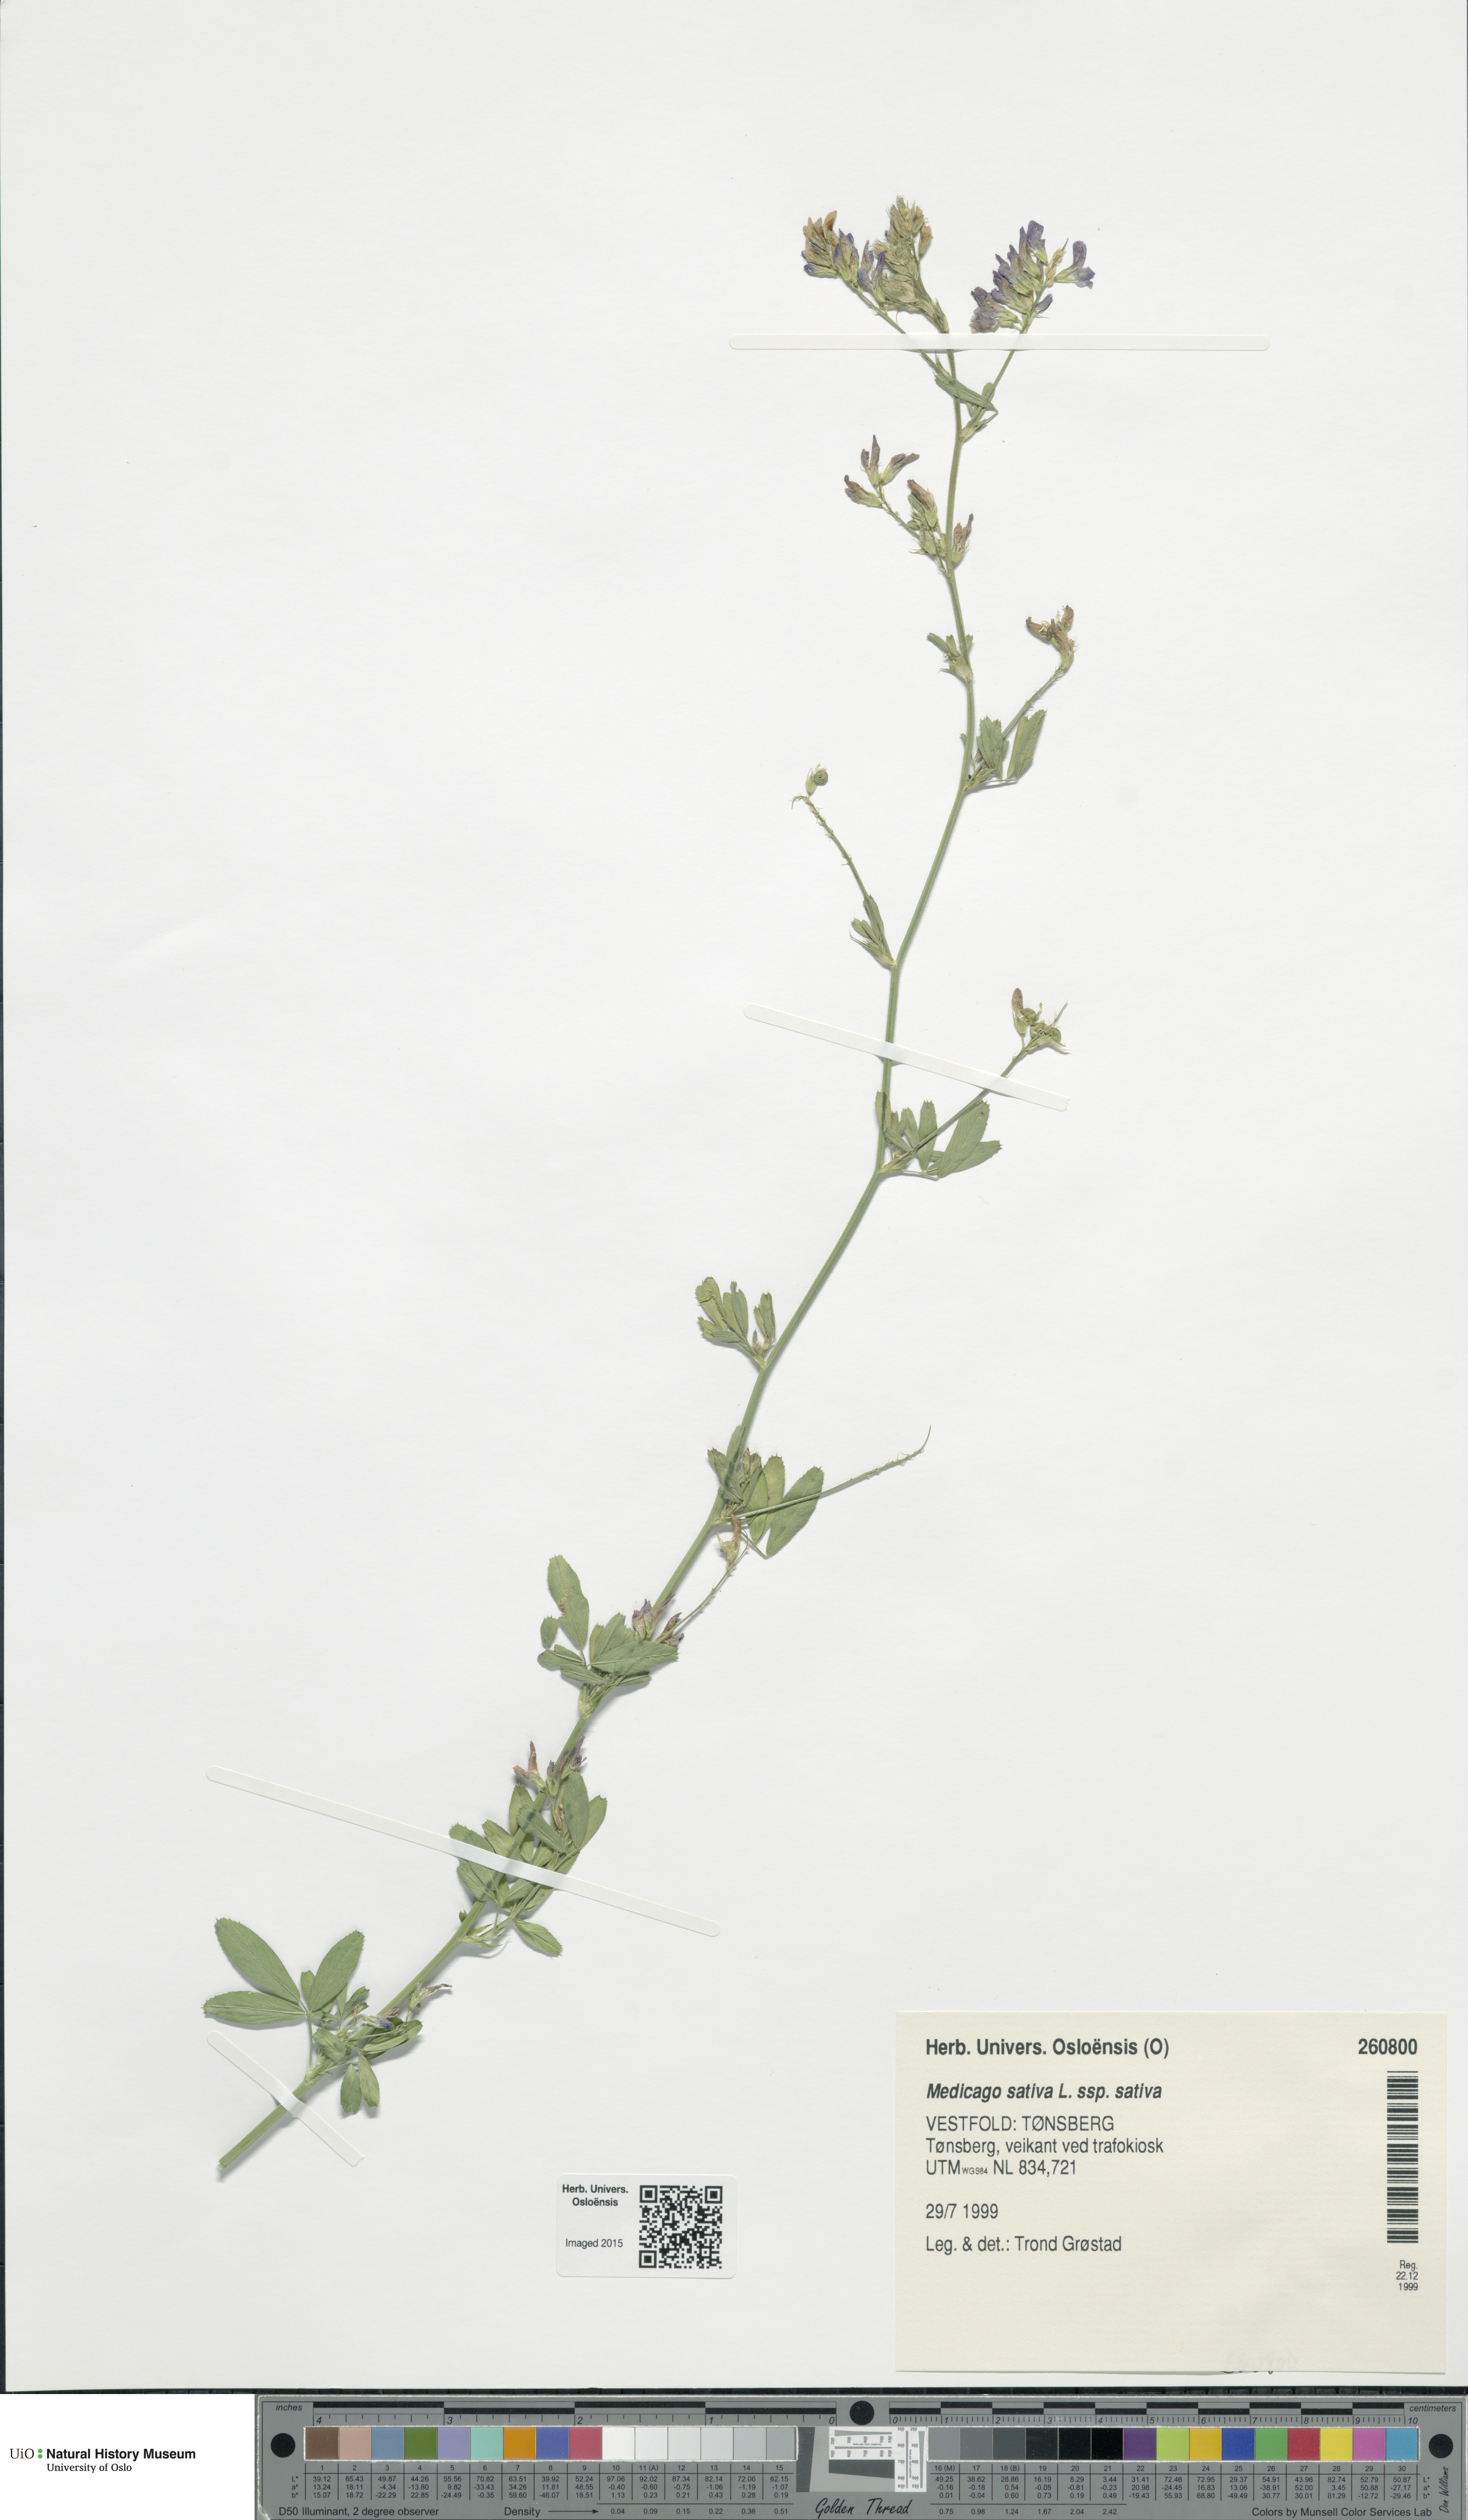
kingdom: Plantae
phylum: Tracheophyta
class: Magnoliopsida
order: Fabales
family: Fabaceae
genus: Medicago
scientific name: Medicago sativa
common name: Alfalfa
